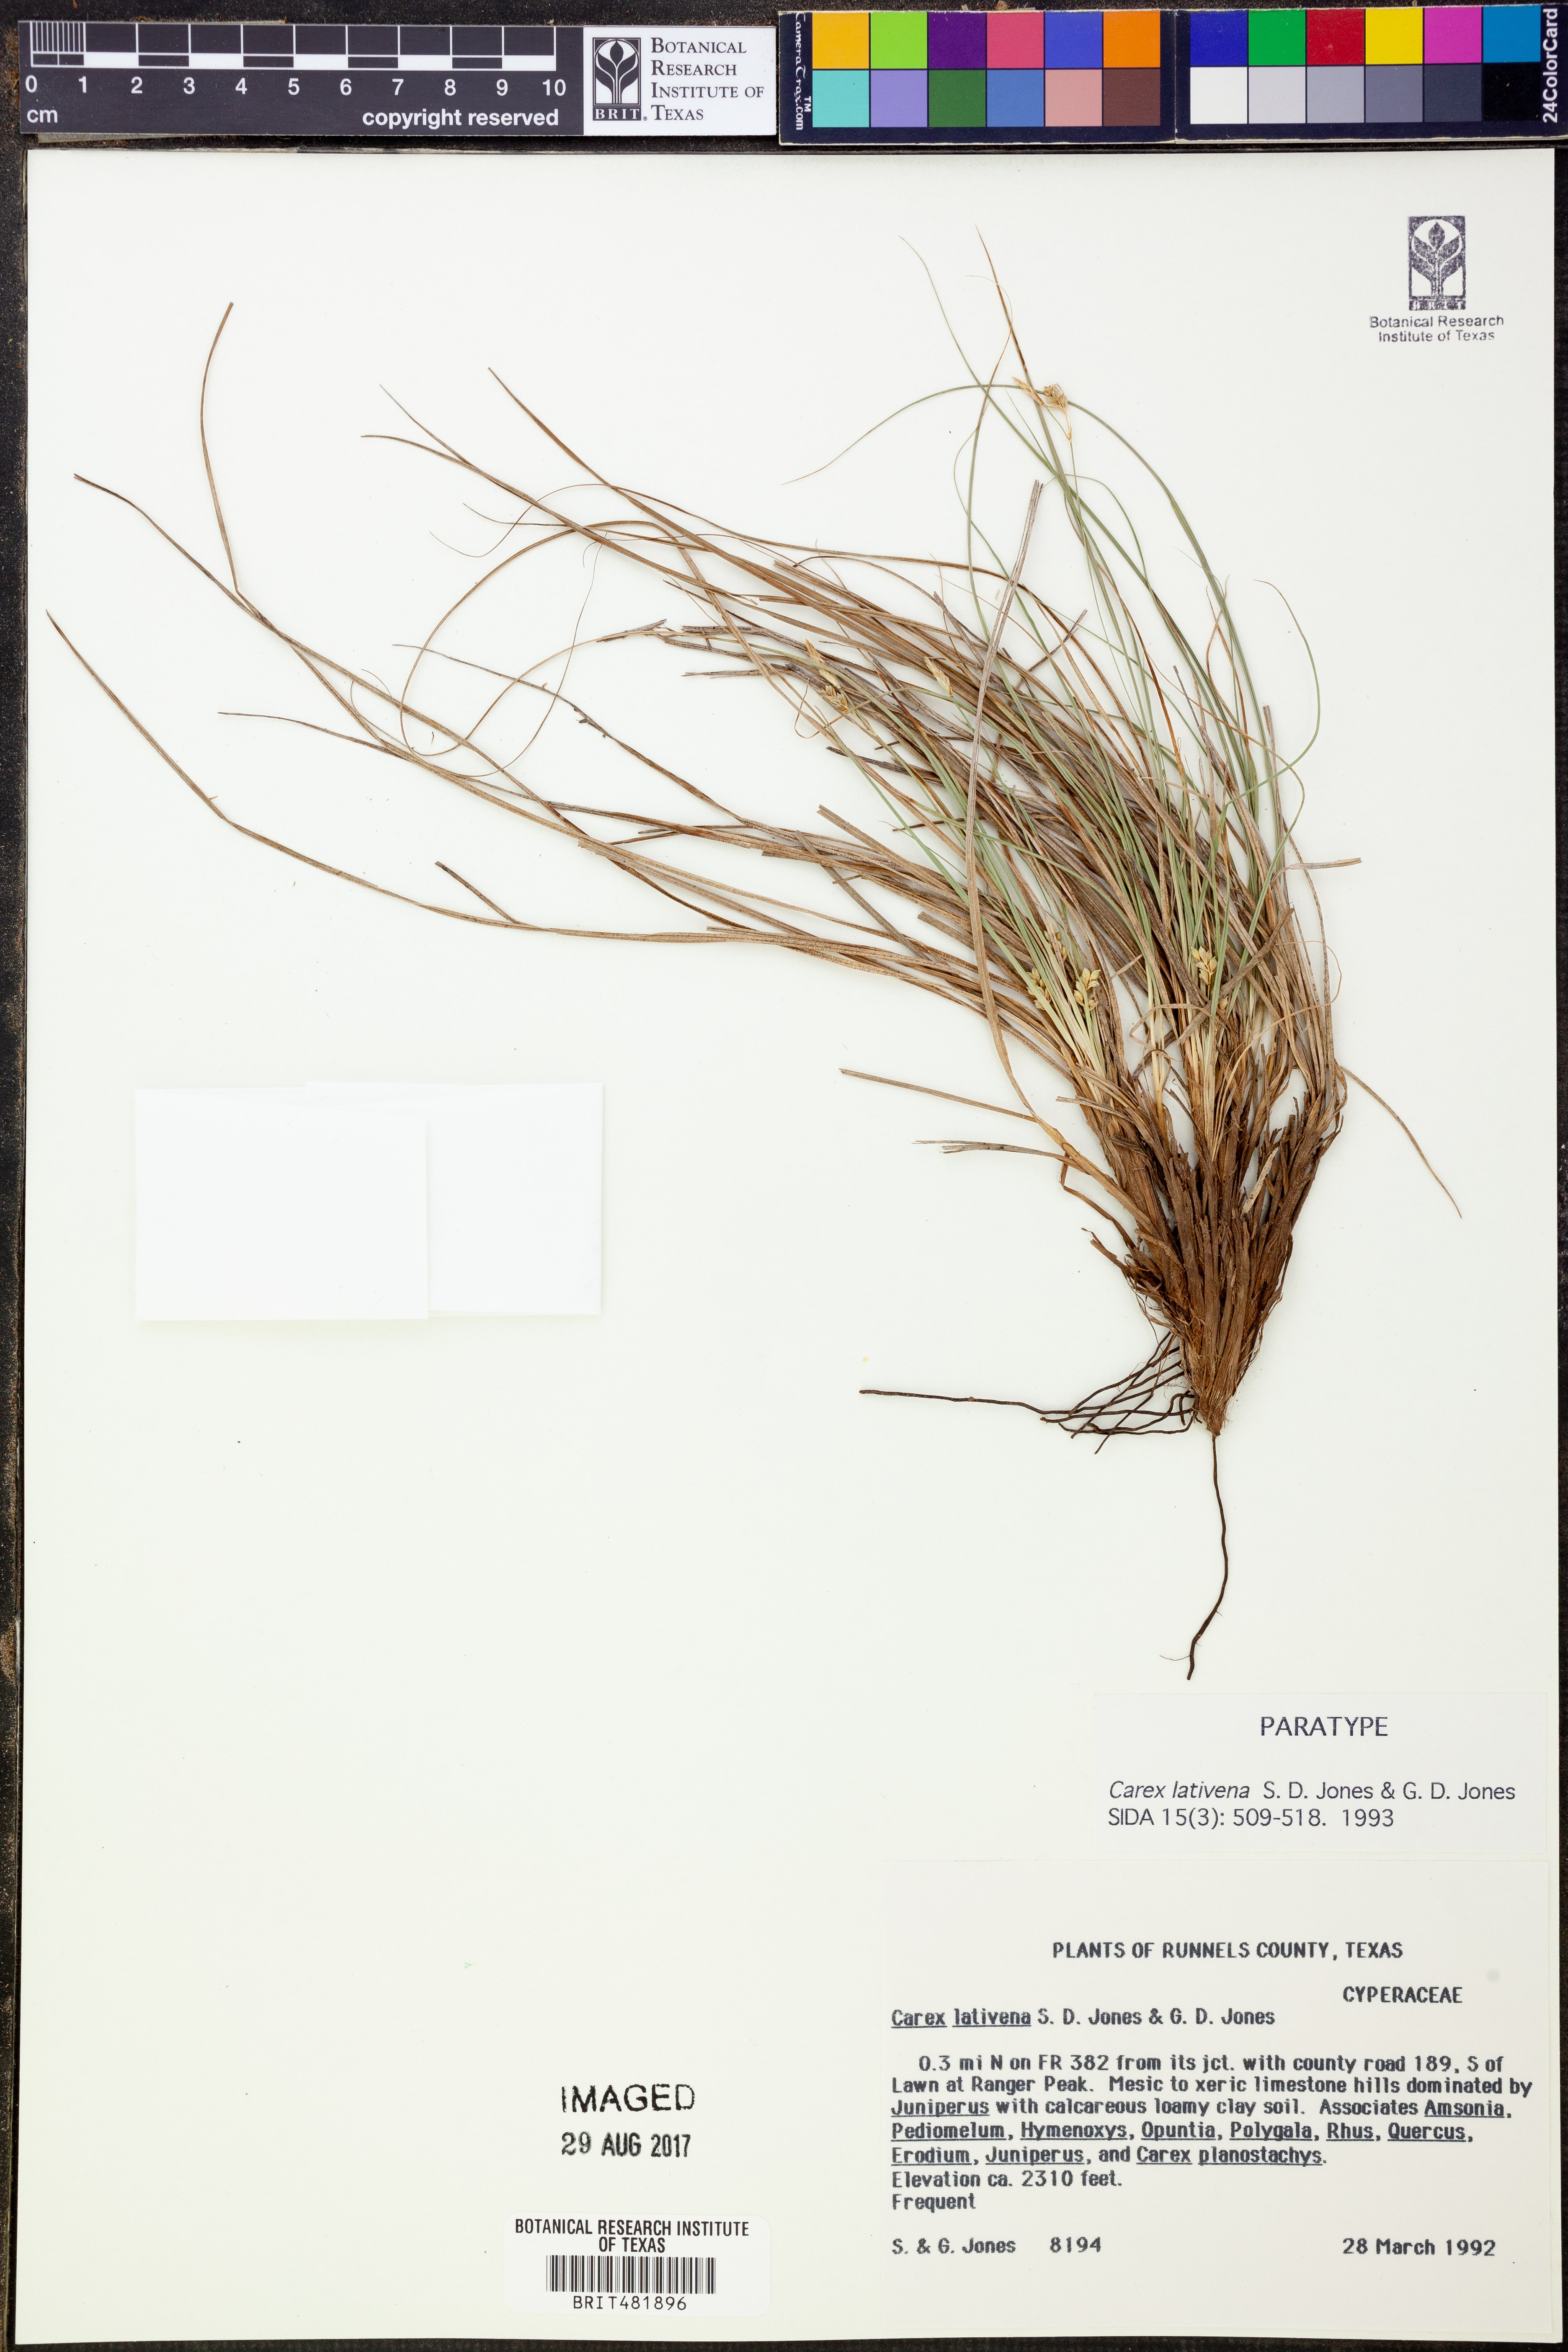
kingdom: Plantae
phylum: Tracheophyta
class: Liliopsida
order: Poales
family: Cyperaceae
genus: Carex
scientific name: Carex lativena
